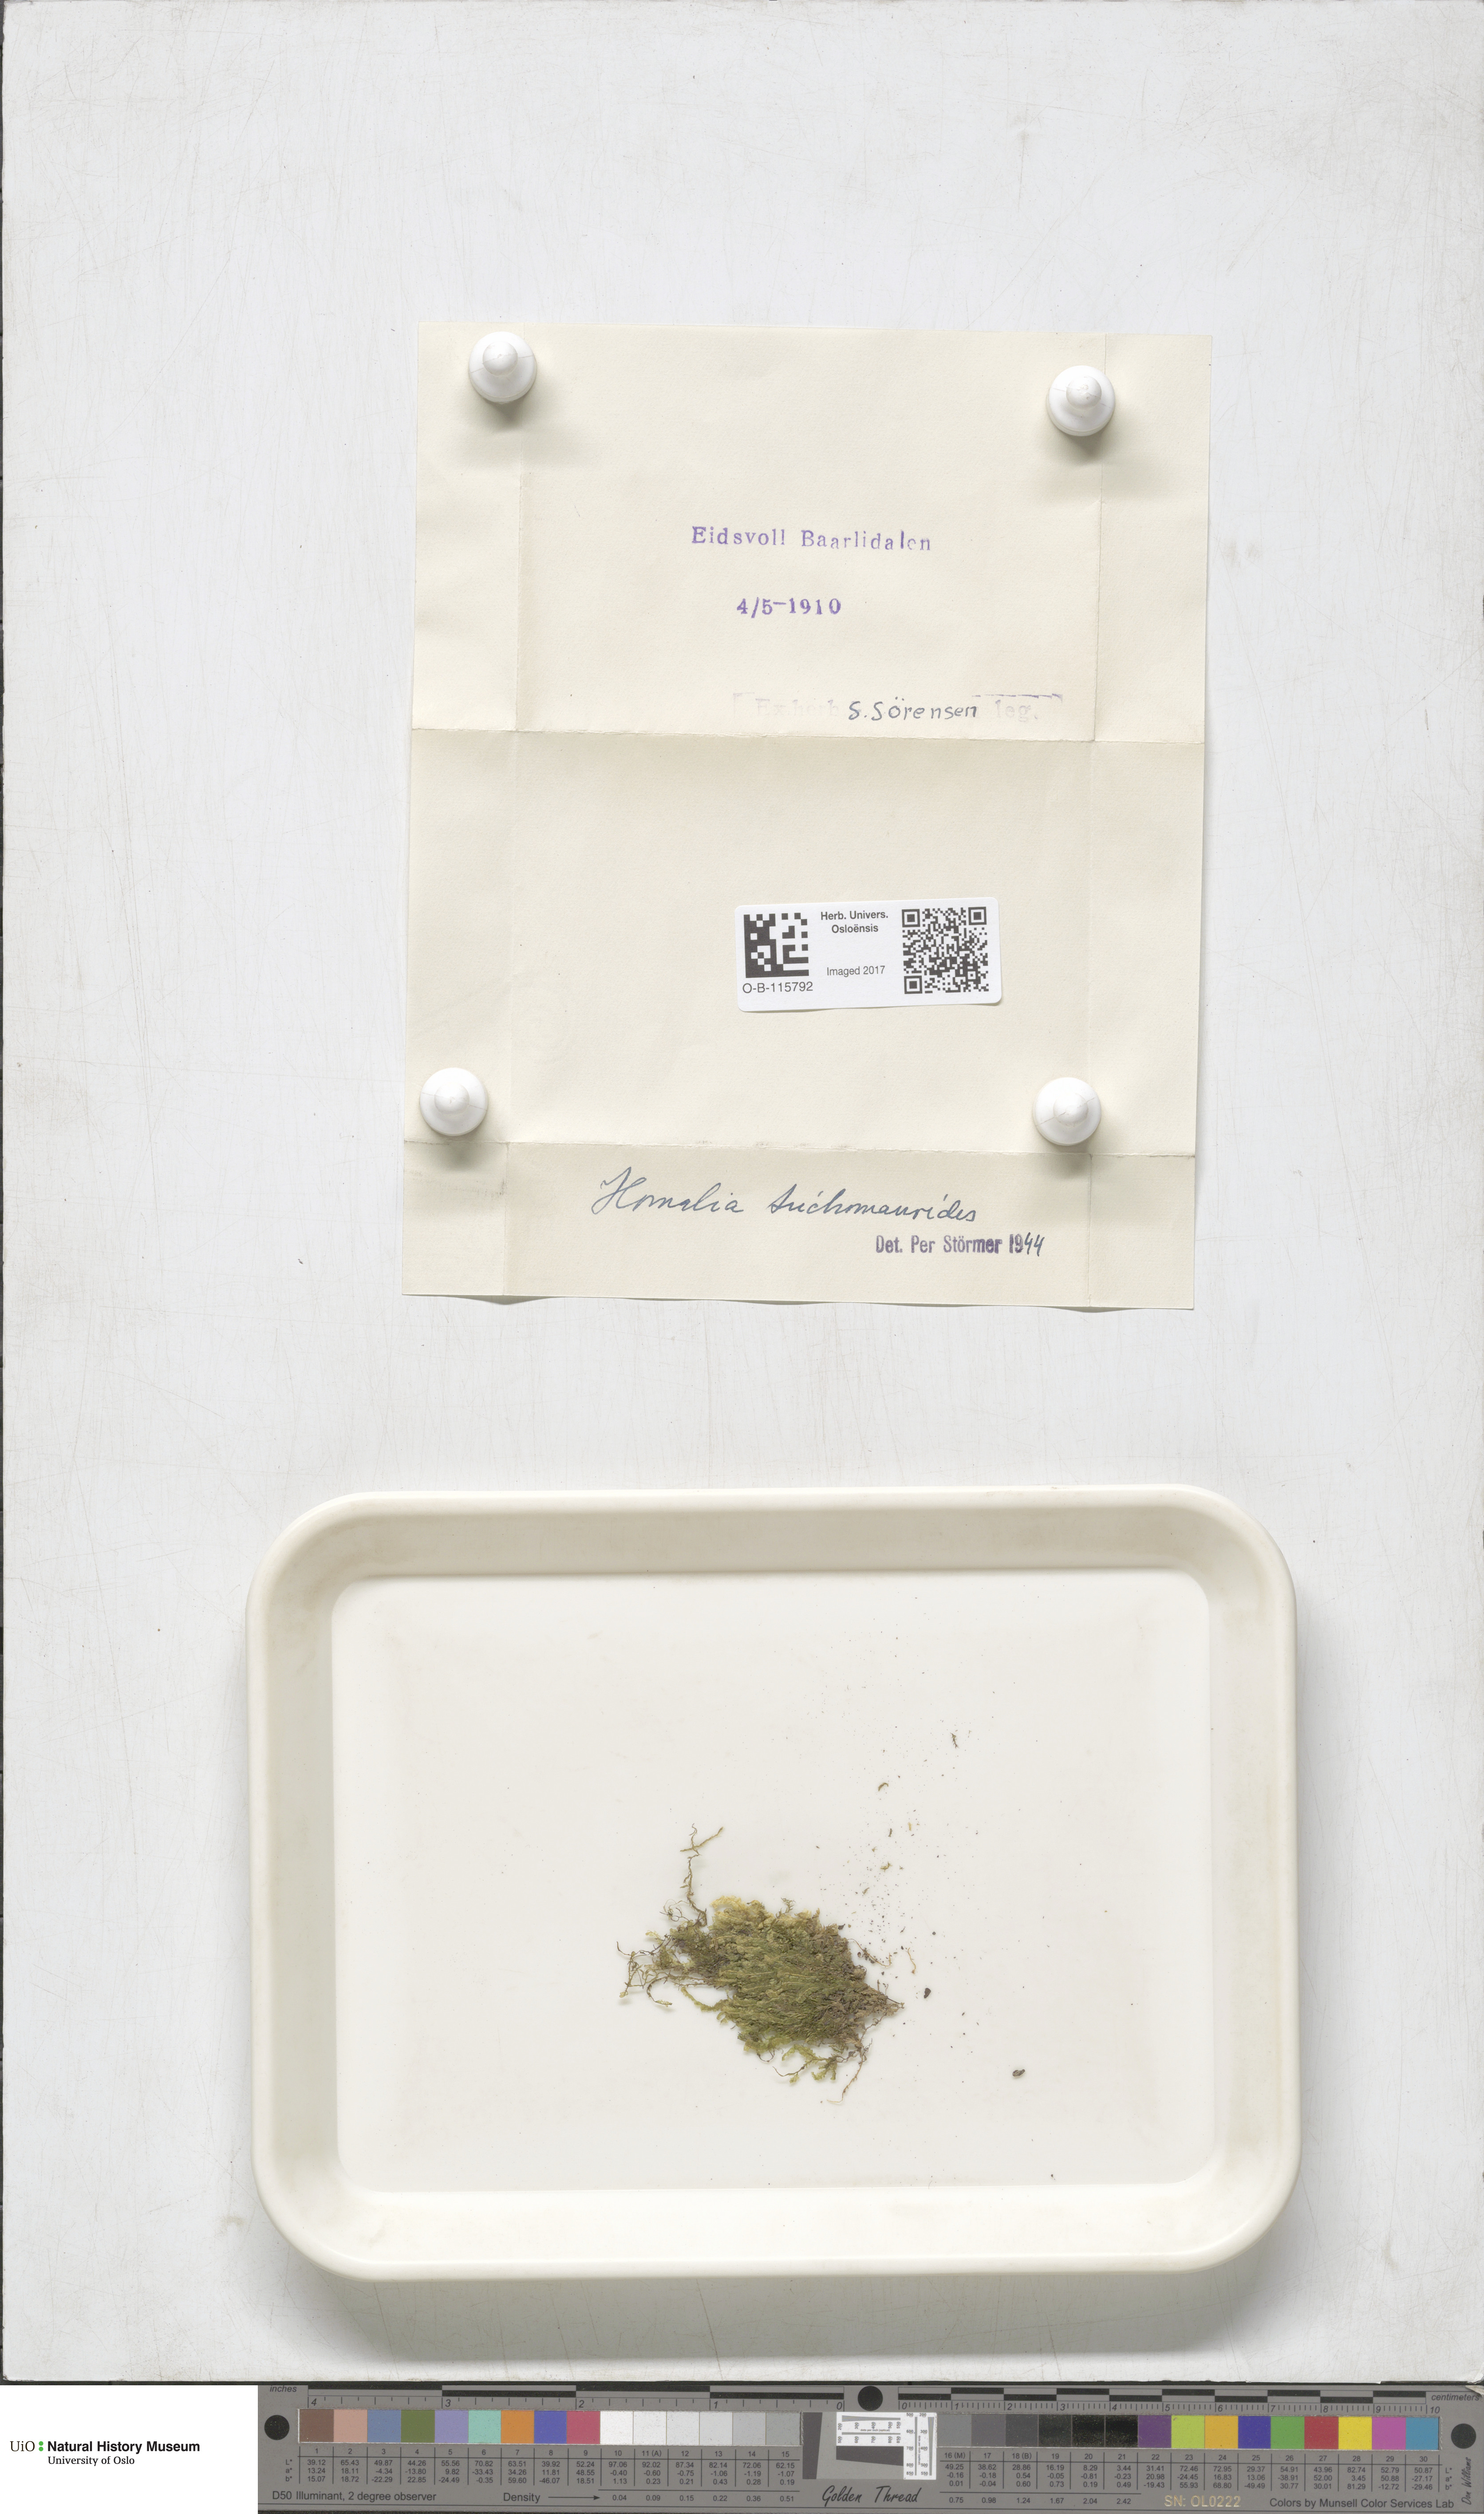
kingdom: Plantae
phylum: Bryophyta
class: Bryopsida
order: Hypnales
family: Neckeraceae
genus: Homalia
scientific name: Homalia trichomanoides
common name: Lime homalia moss
